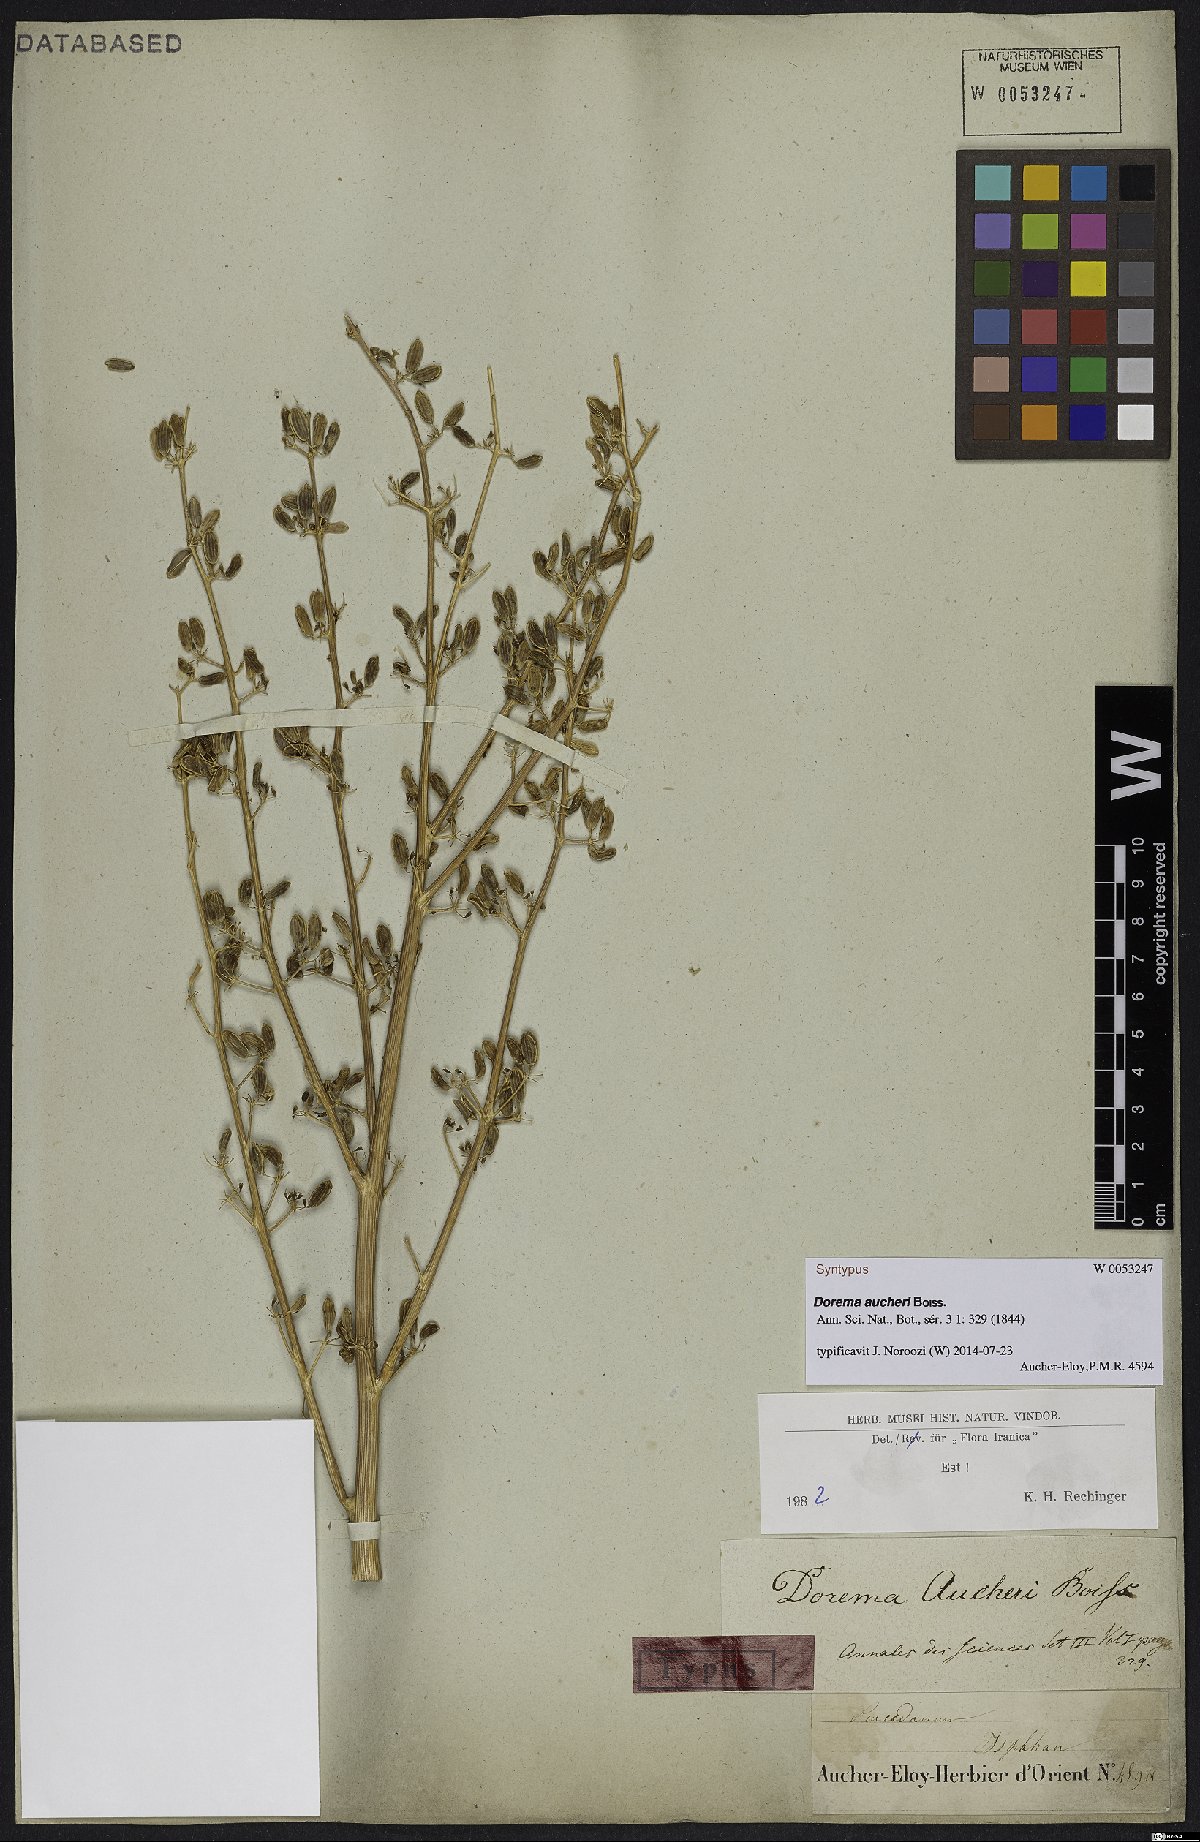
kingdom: Plantae
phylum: Tracheophyta
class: Magnoliopsida
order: Apiales
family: Apiaceae
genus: Ferula
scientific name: Ferula aucheri
